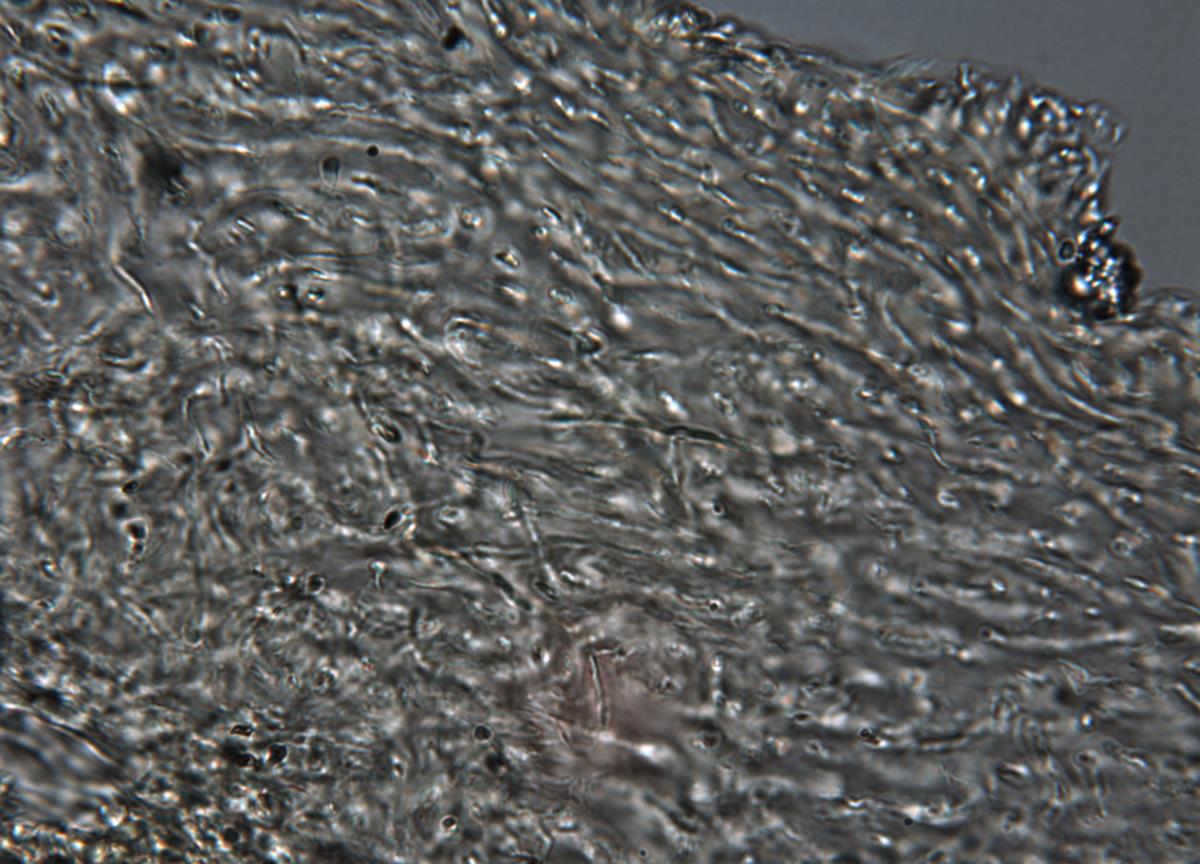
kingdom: Fungi
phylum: Basidiomycota
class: Agaricomycetes
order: Agaricales
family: Cortinariaceae
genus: Cortinarius
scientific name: Cortinarius nivalis
